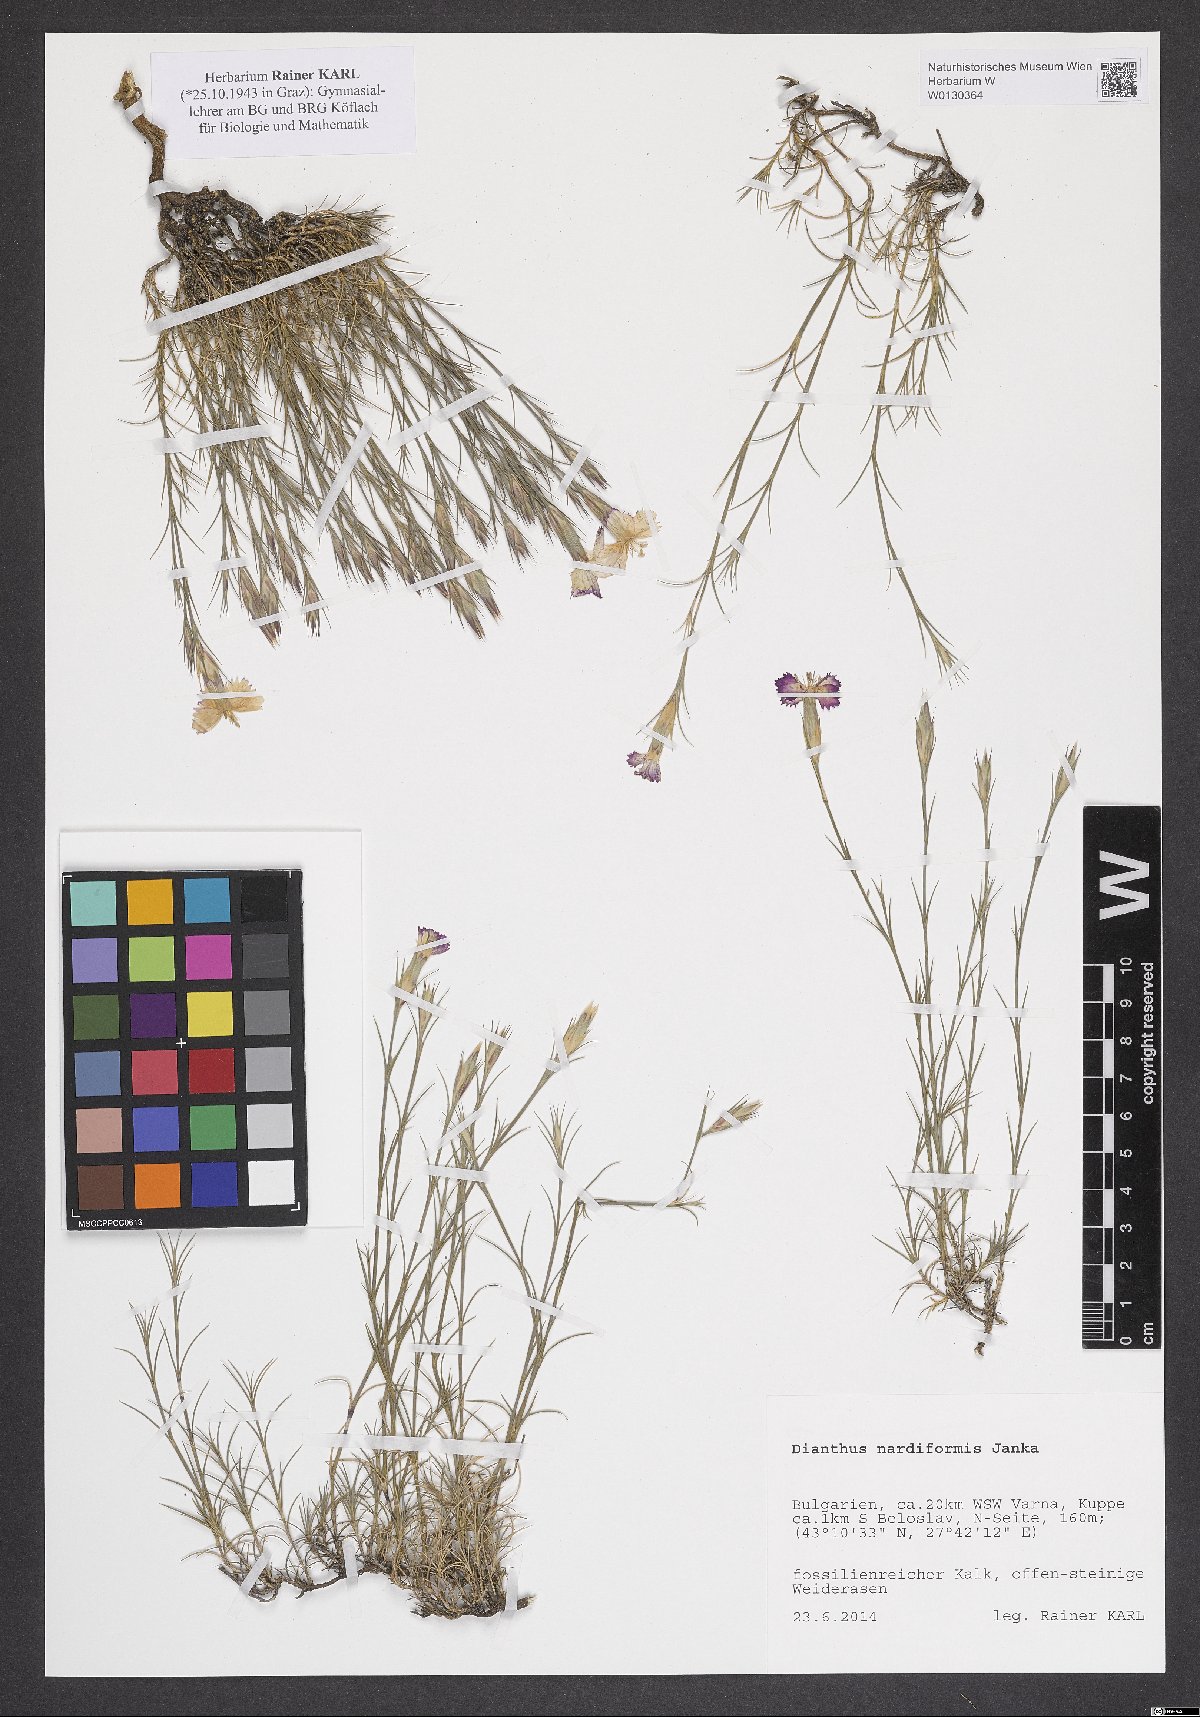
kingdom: Plantae
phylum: Tracheophyta
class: Magnoliopsida
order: Caryophyllales
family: Caryophyllaceae
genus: Dianthus
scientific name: Dianthus nardiformis
